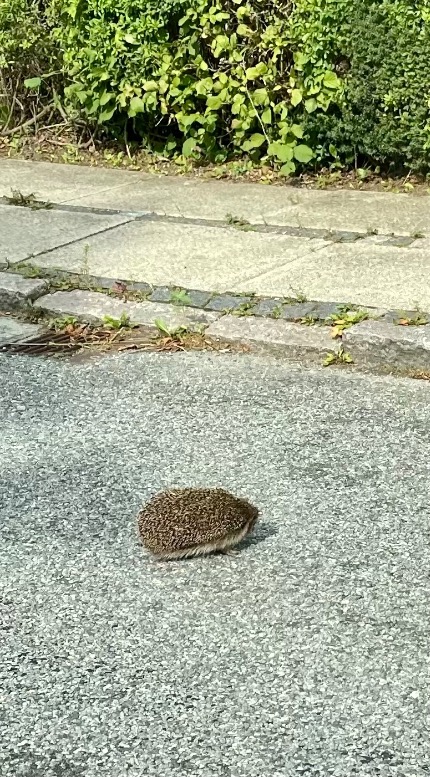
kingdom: Animalia
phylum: Chordata
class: Mammalia
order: Erinaceomorpha
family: Erinaceidae
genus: Erinaceus
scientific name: Erinaceus europaeus
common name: Pindsvin
